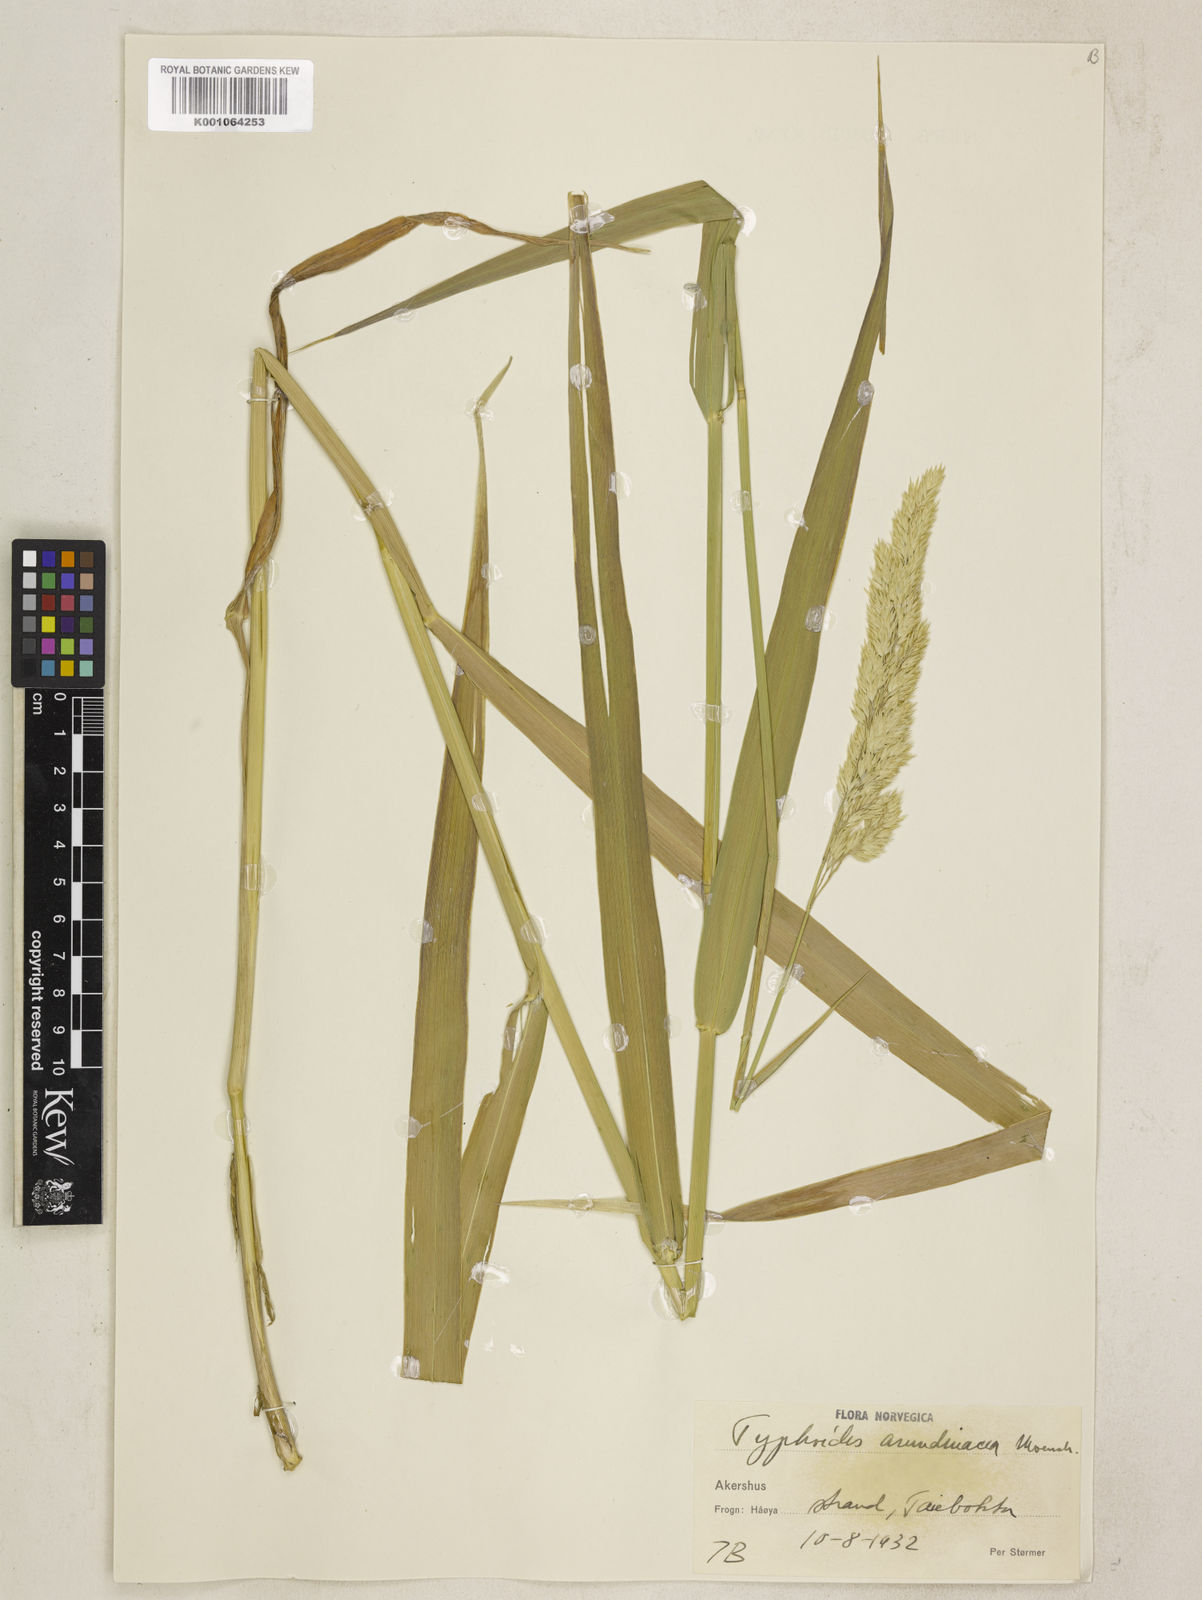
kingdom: Plantae
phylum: Tracheophyta
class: Liliopsida
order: Poales
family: Poaceae
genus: Phalaris
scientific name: Phalaris arundinacea
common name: Reed canary-grass
